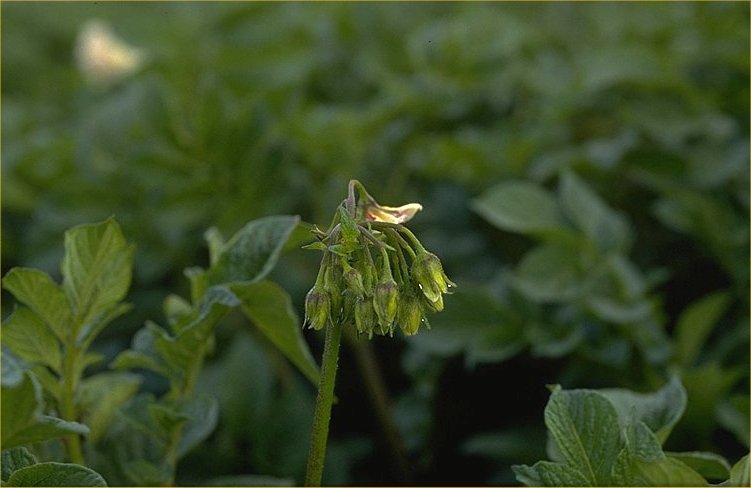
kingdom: Plantae
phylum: Tracheophyta
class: Magnoliopsida
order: Solanales
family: Solanaceae
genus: Solanum
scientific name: Solanum tuberosum
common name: Potato
